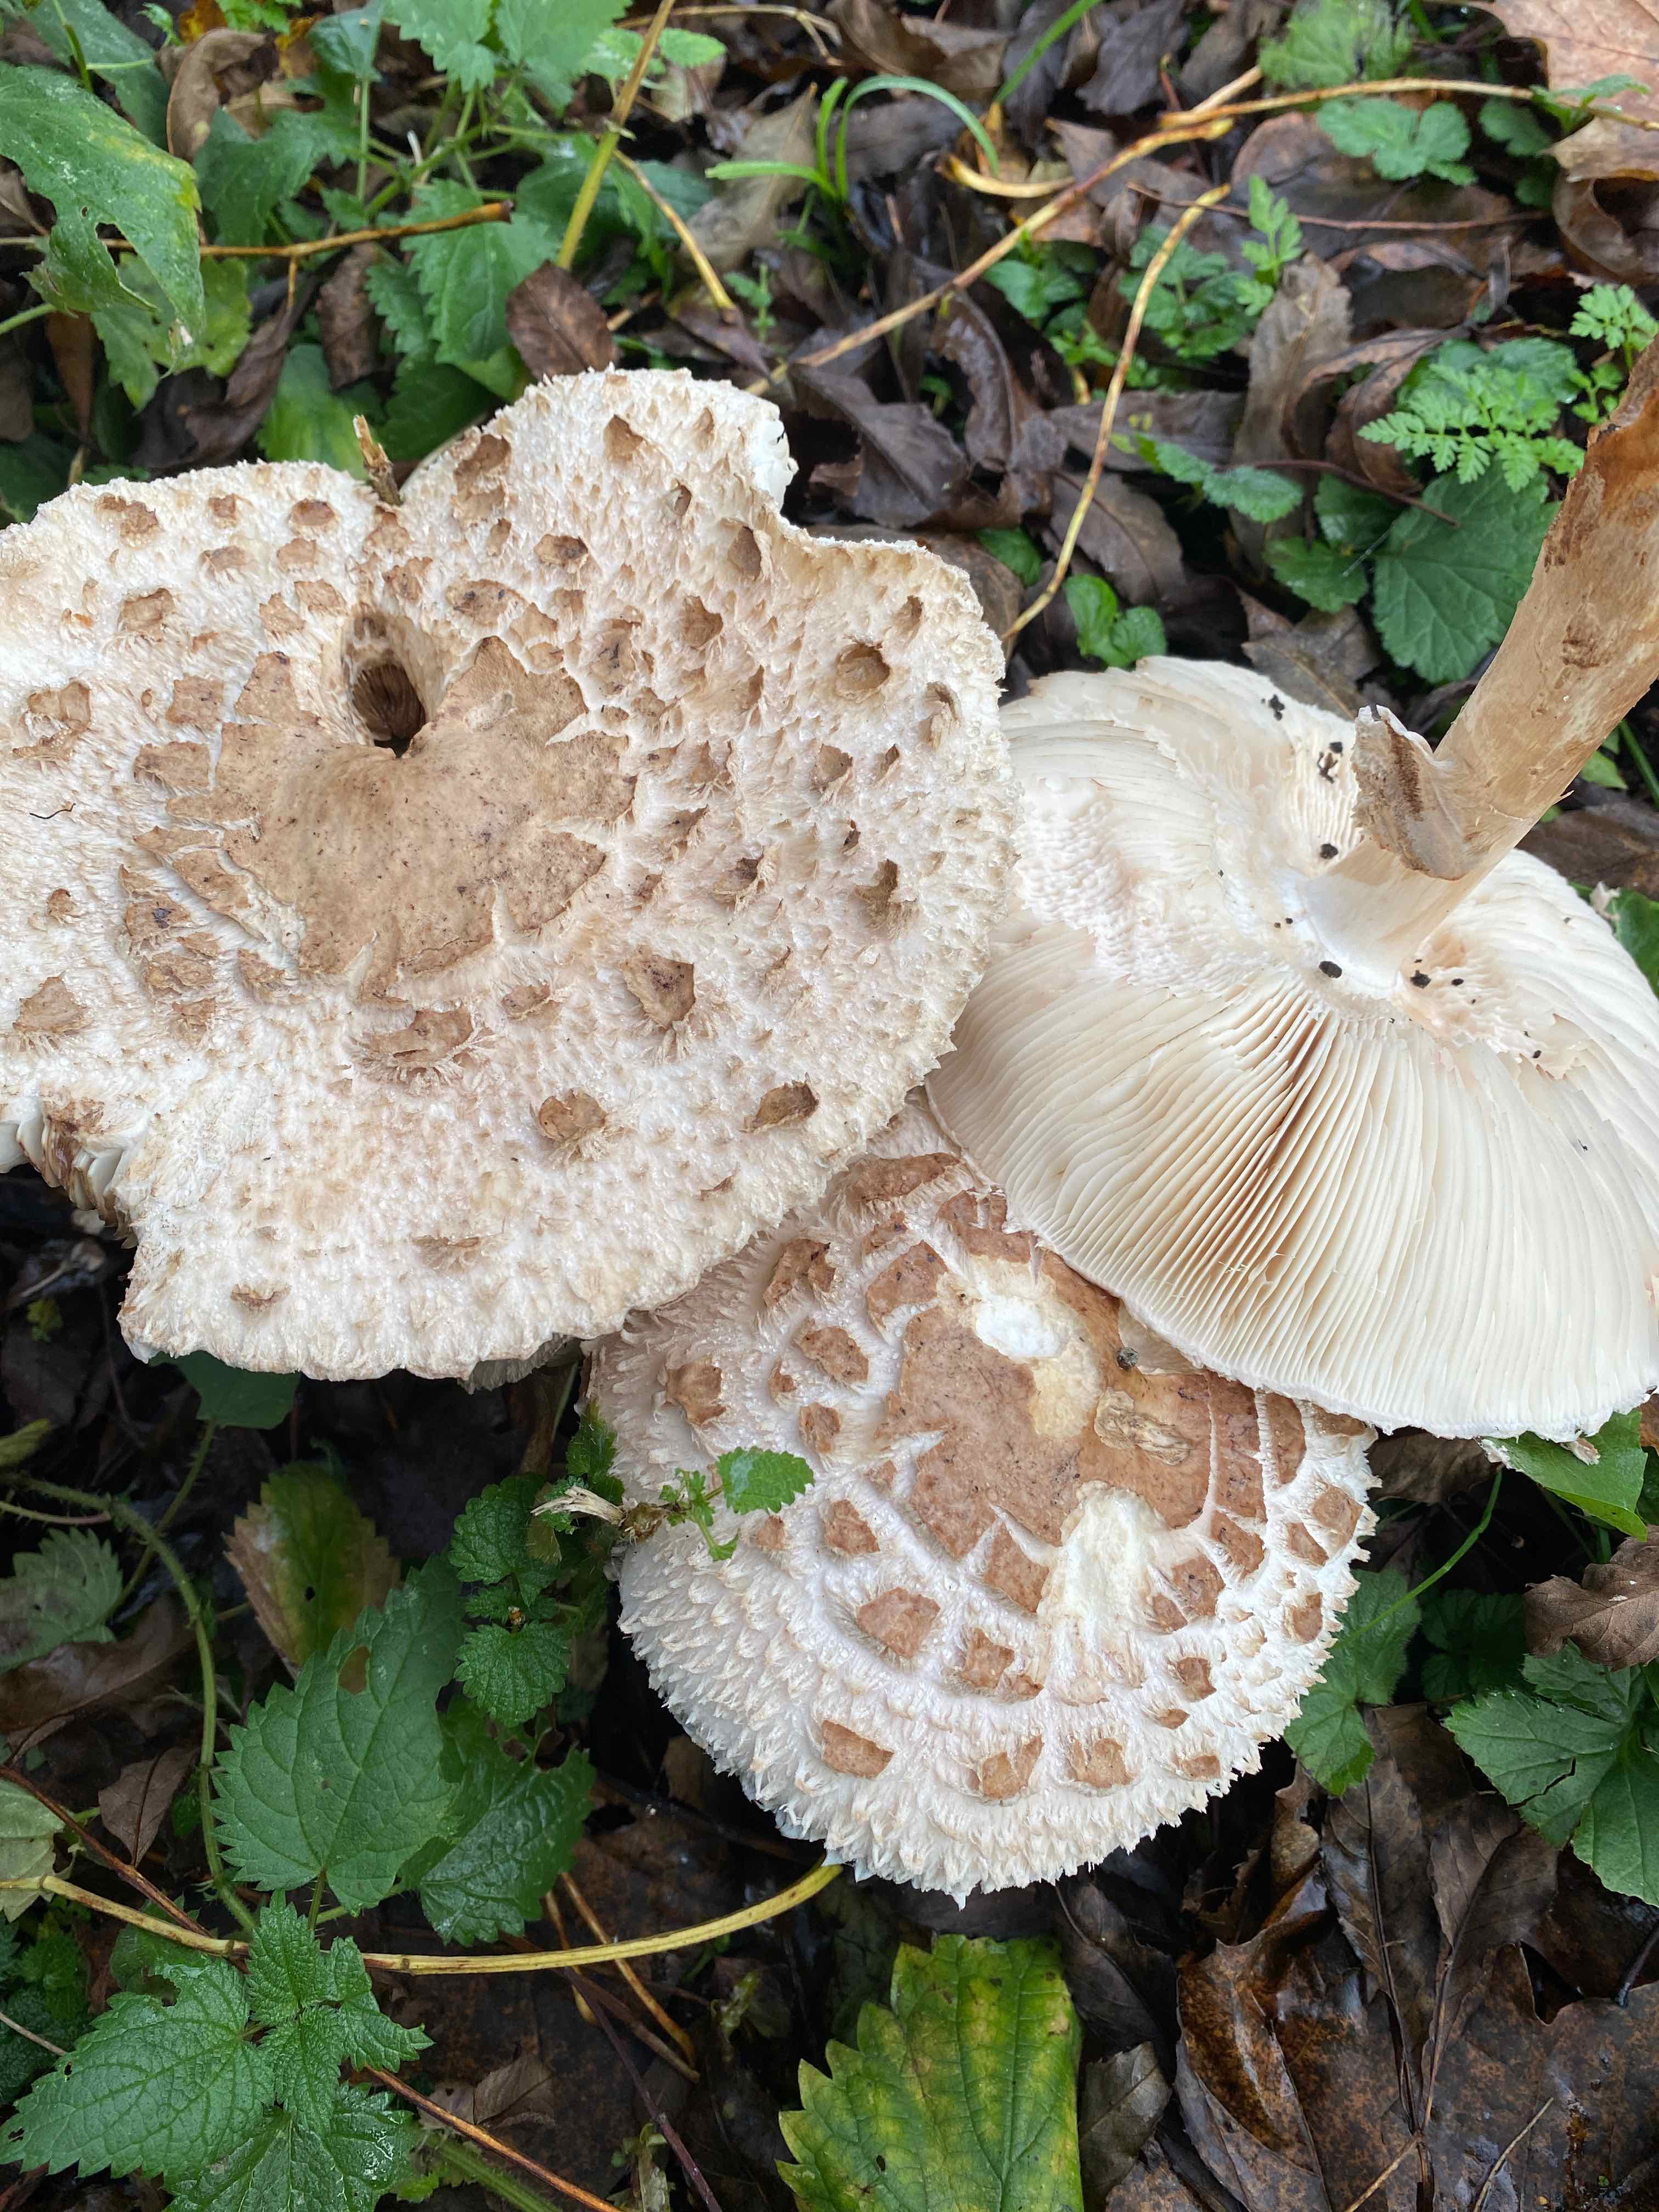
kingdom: Fungi
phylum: Basidiomycota
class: Agaricomycetes
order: Agaricales
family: Agaricaceae
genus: Chlorophyllum
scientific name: Chlorophyllum olivieri
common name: almindelig rabarberhat
